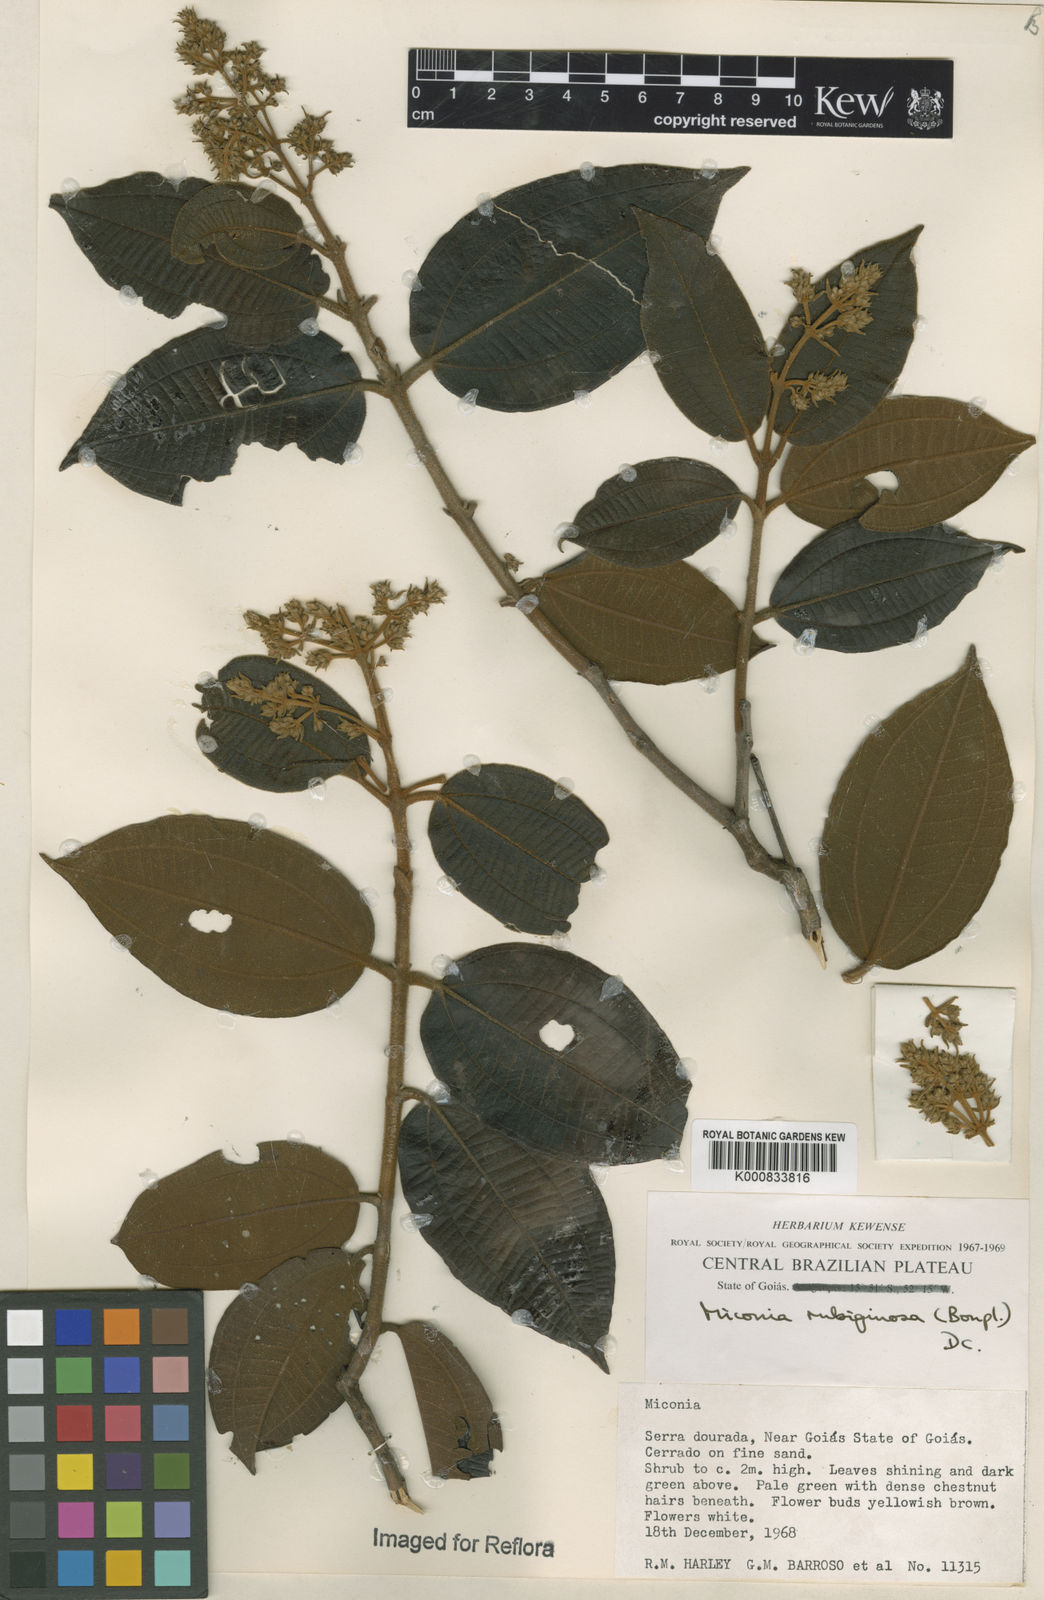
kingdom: Plantae
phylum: Tracheophyta
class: Magnoliopsida
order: Myrtales
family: Melastomataceae
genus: Miconia
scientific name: Miconia rubiginosa
